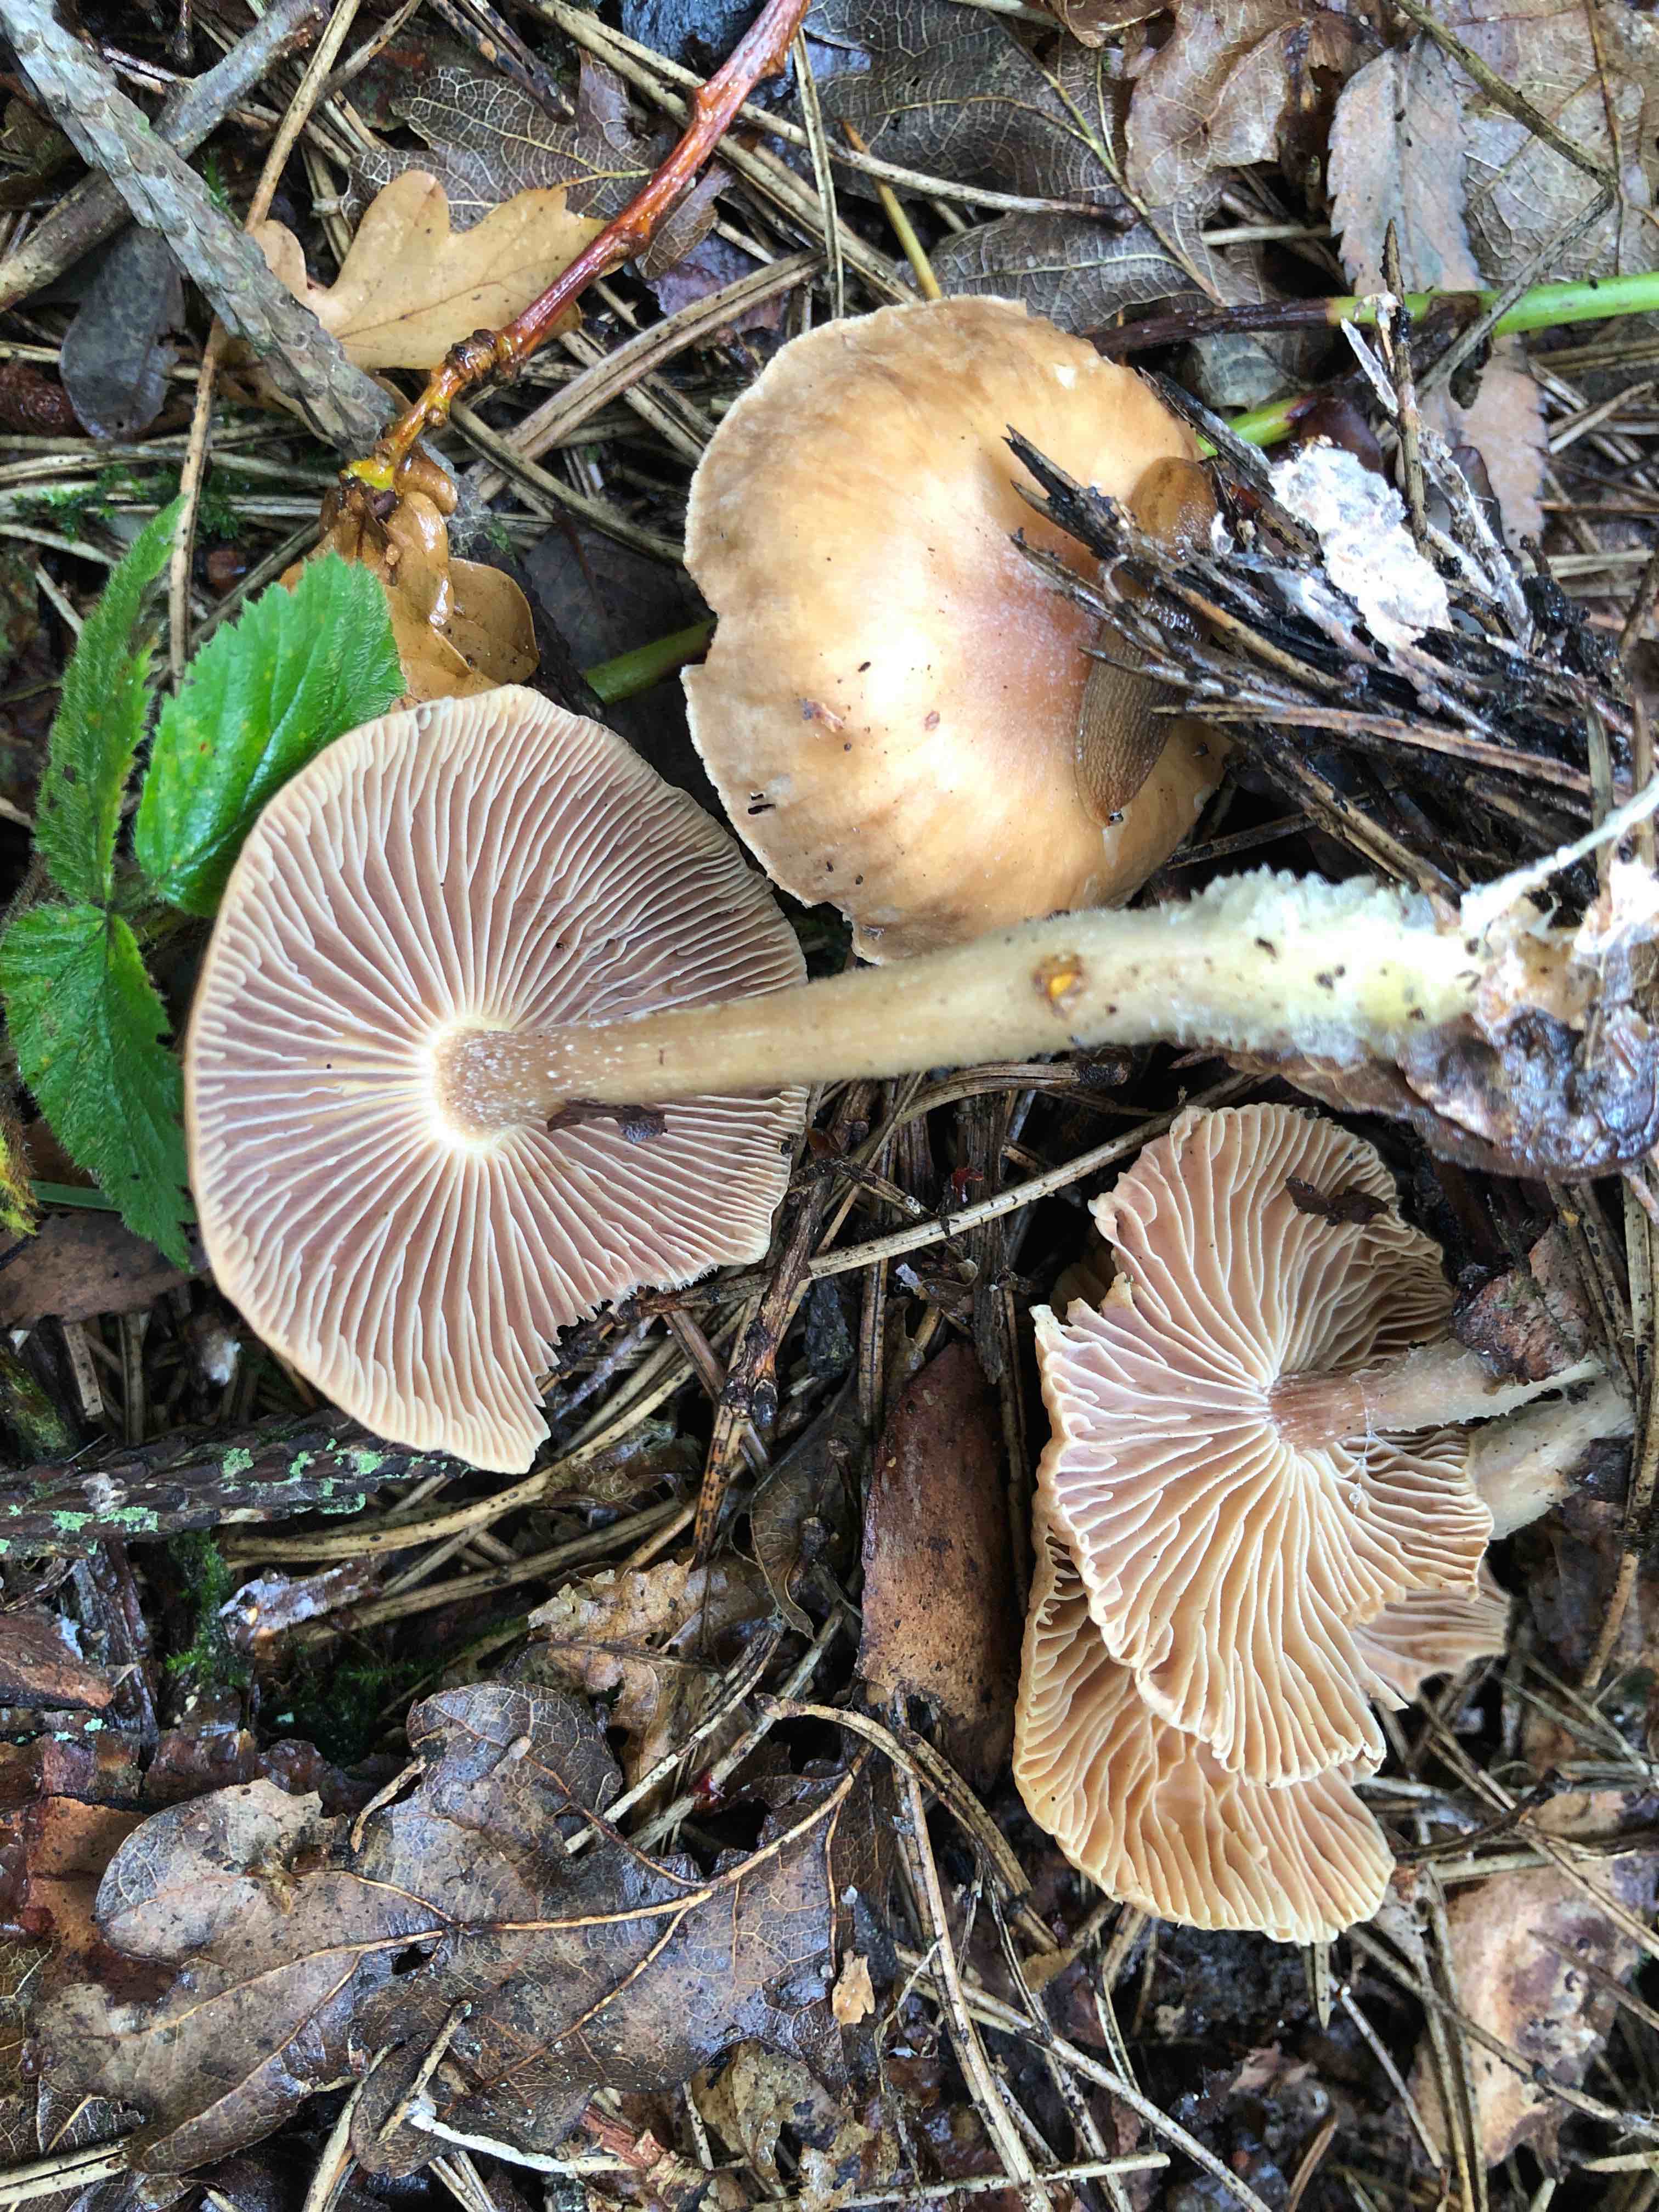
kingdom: Fungi
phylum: Basidiomycota
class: Agaricomycetes
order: Agaricales
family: Omphalotaceae
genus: Collybiopsis
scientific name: Collybiopsis peronata
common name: bestøvlet fladhat
